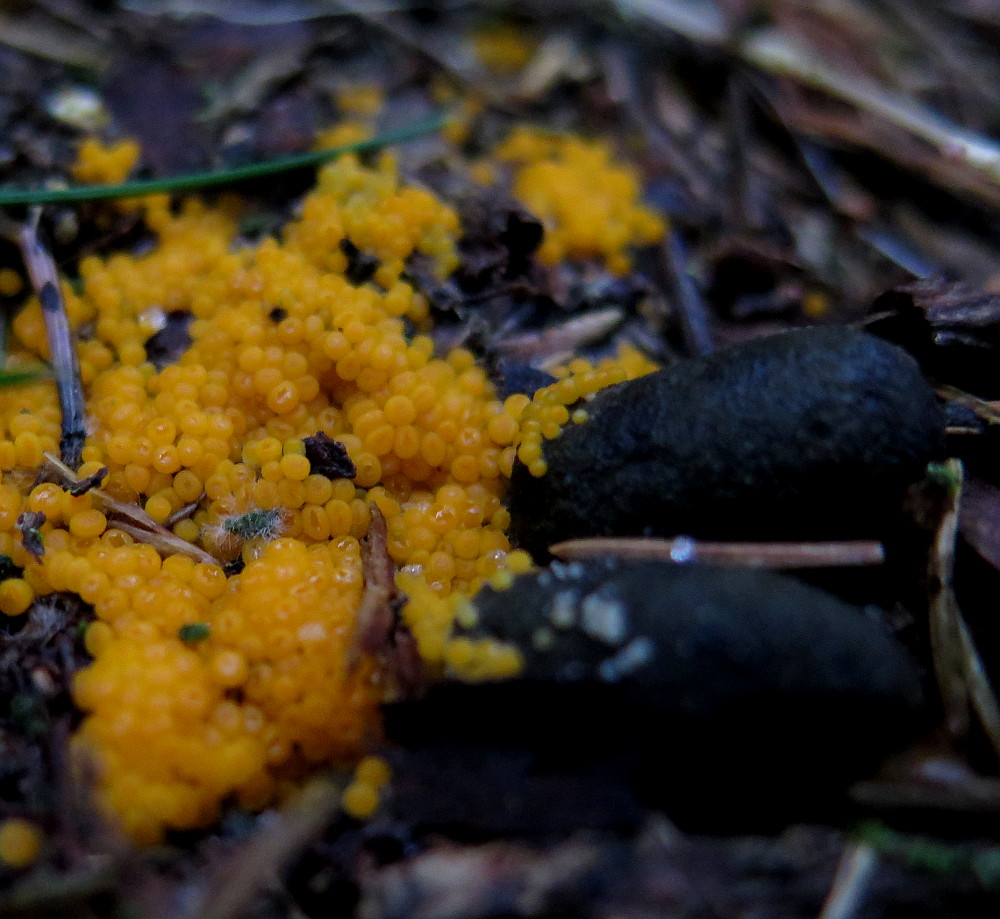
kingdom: Fungi
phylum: Ascomycota
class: Pezizomycetes
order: Pezizales
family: Pyronemataceae
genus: Byssonectria
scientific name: Byssonectria terrestris
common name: hjortebæger
